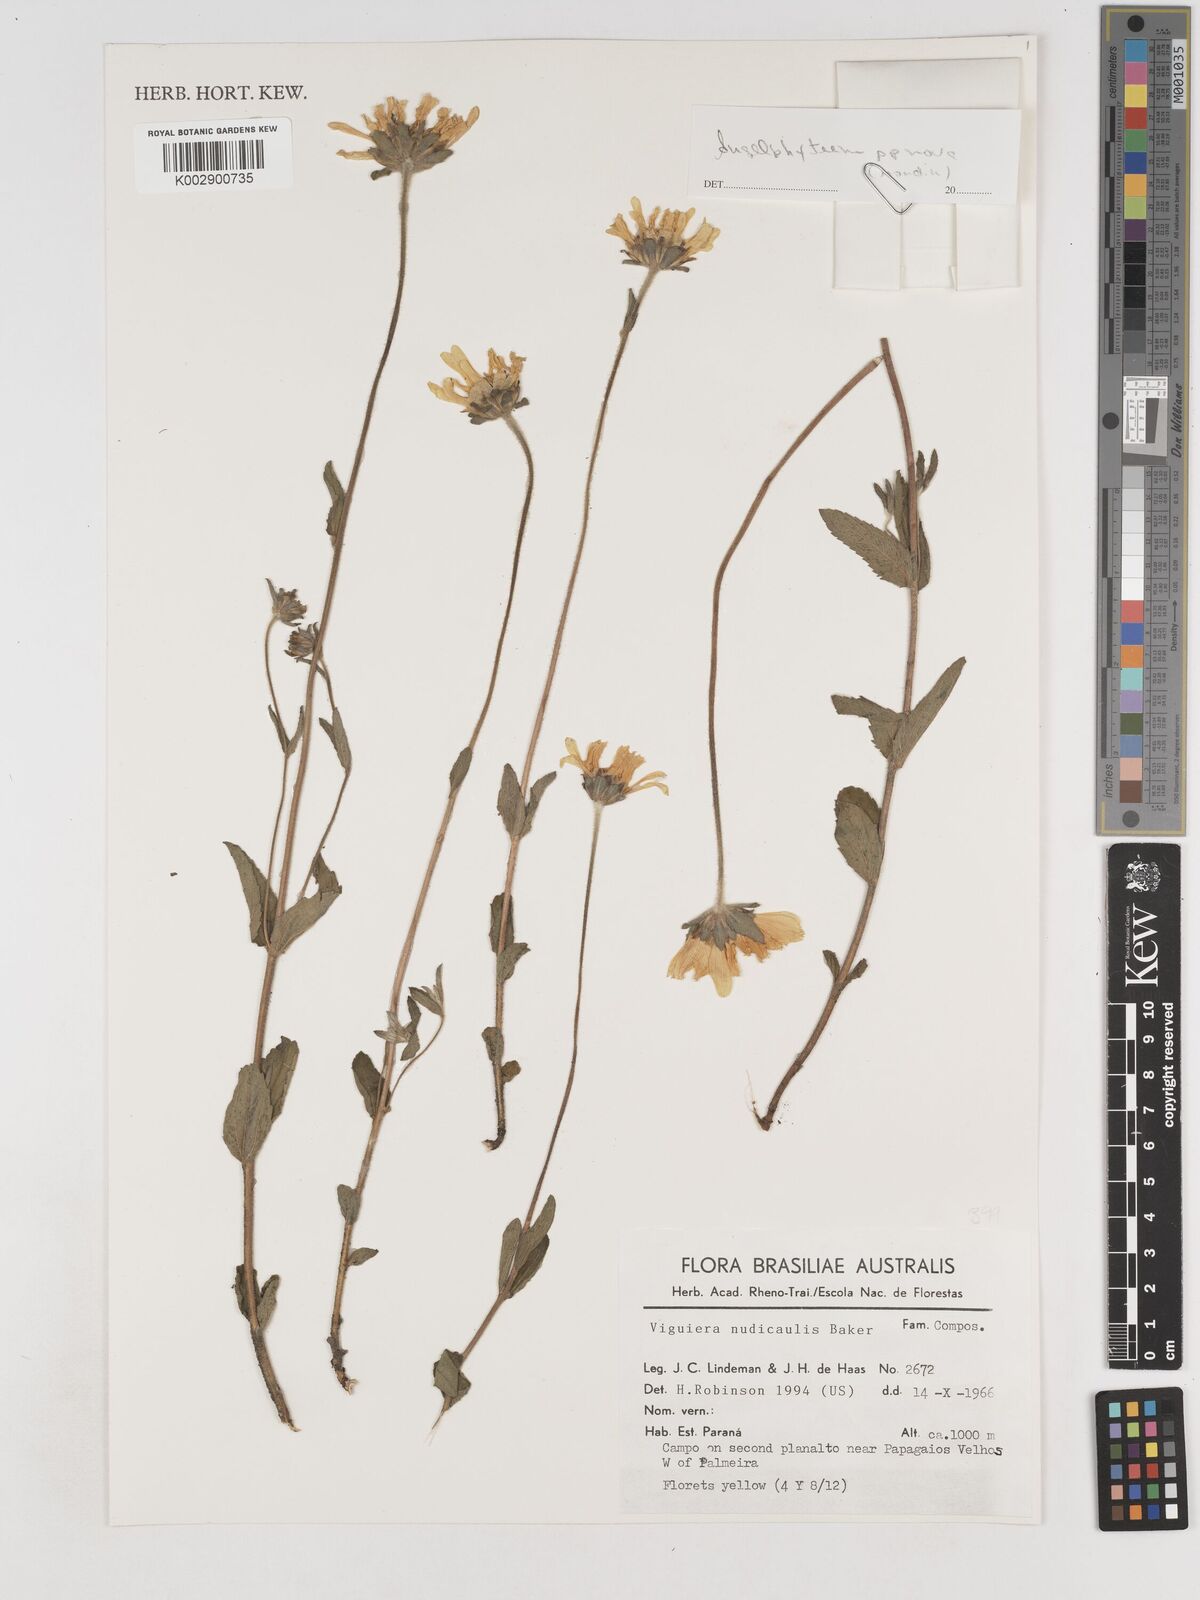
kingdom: Plantae
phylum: Tracheophyta
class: Magnoliopsida
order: Asterales
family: Asteraceae
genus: Dimerostemma
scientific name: Dimerostemma
